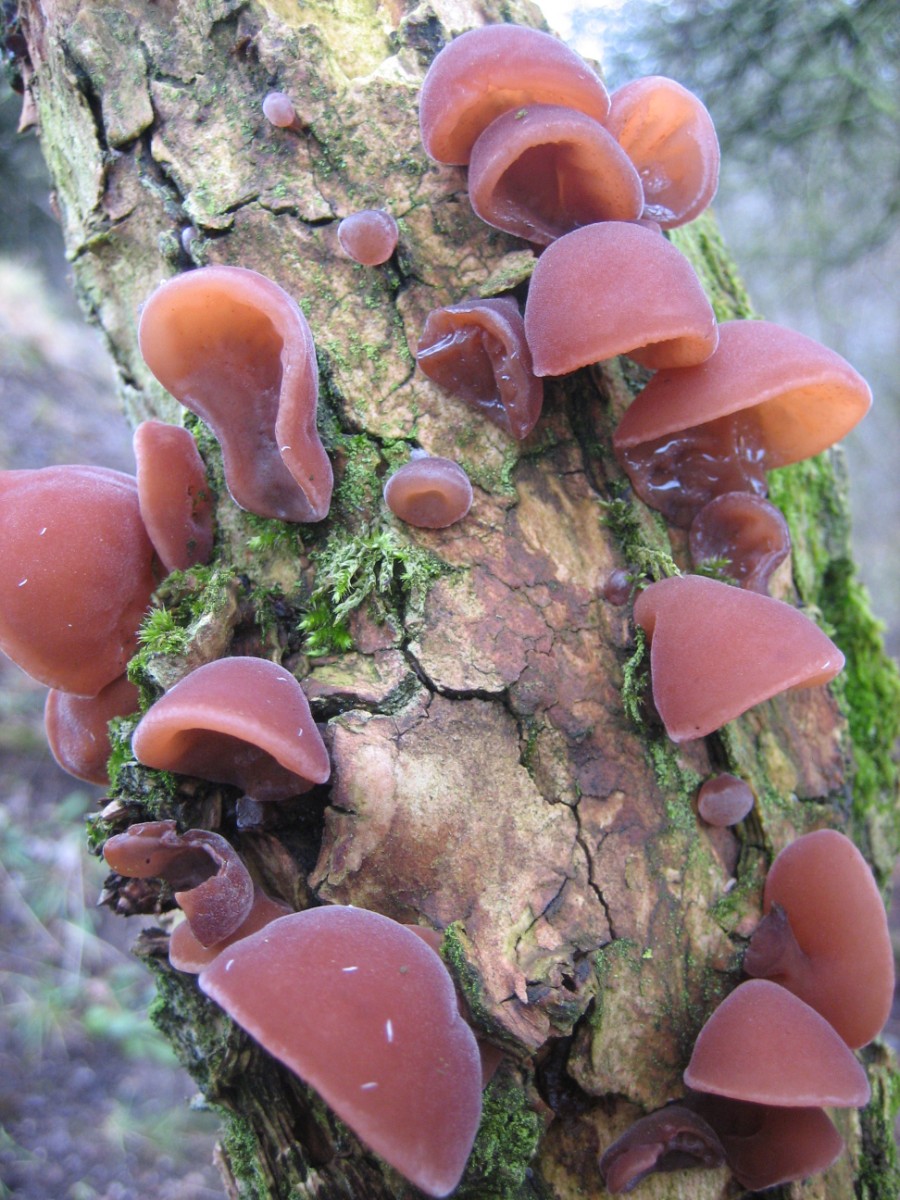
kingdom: Fungi
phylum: Basidiomycota
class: Agaricomycetes
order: Auriculariales
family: Auriculariaceae
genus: Auricularia
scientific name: Auricularia auricula-judae
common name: almindelig judasøre
